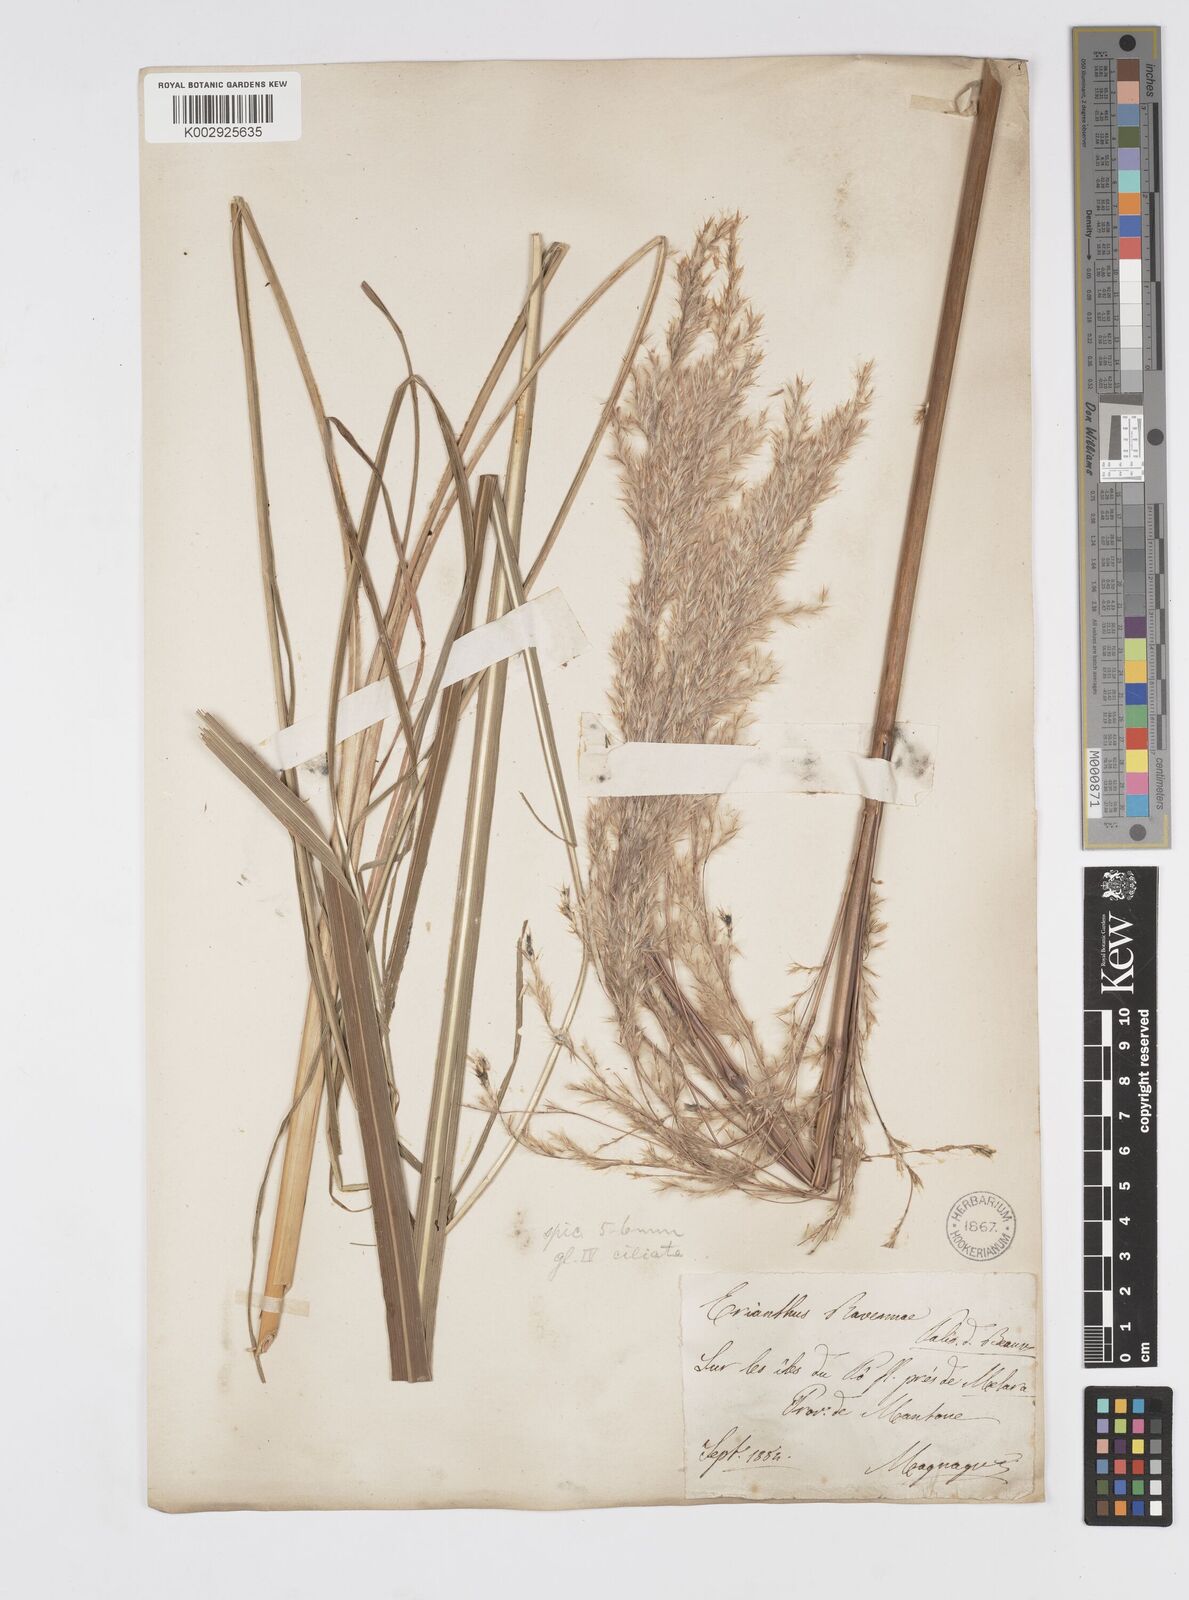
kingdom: Plantae
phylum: Tracheophyta
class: Liliopsida
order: Poales
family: Poaceae
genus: Tripidium
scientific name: Tripidium ravennae
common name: Ravenna grass
